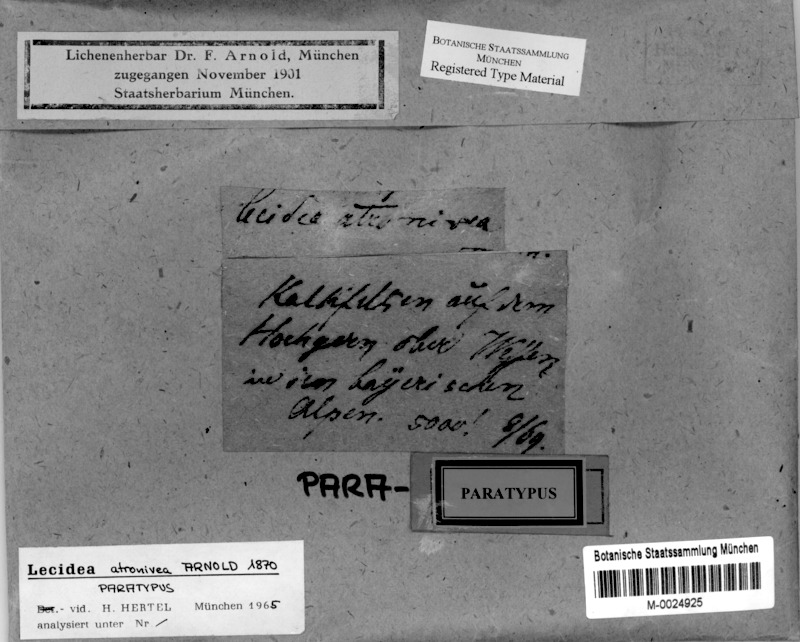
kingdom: Fungi
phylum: Ascomycota
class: Lecanoromycetes
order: Lecanorales
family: Lecanoraceae
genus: Carbonea
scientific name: Carbonea atronivea
